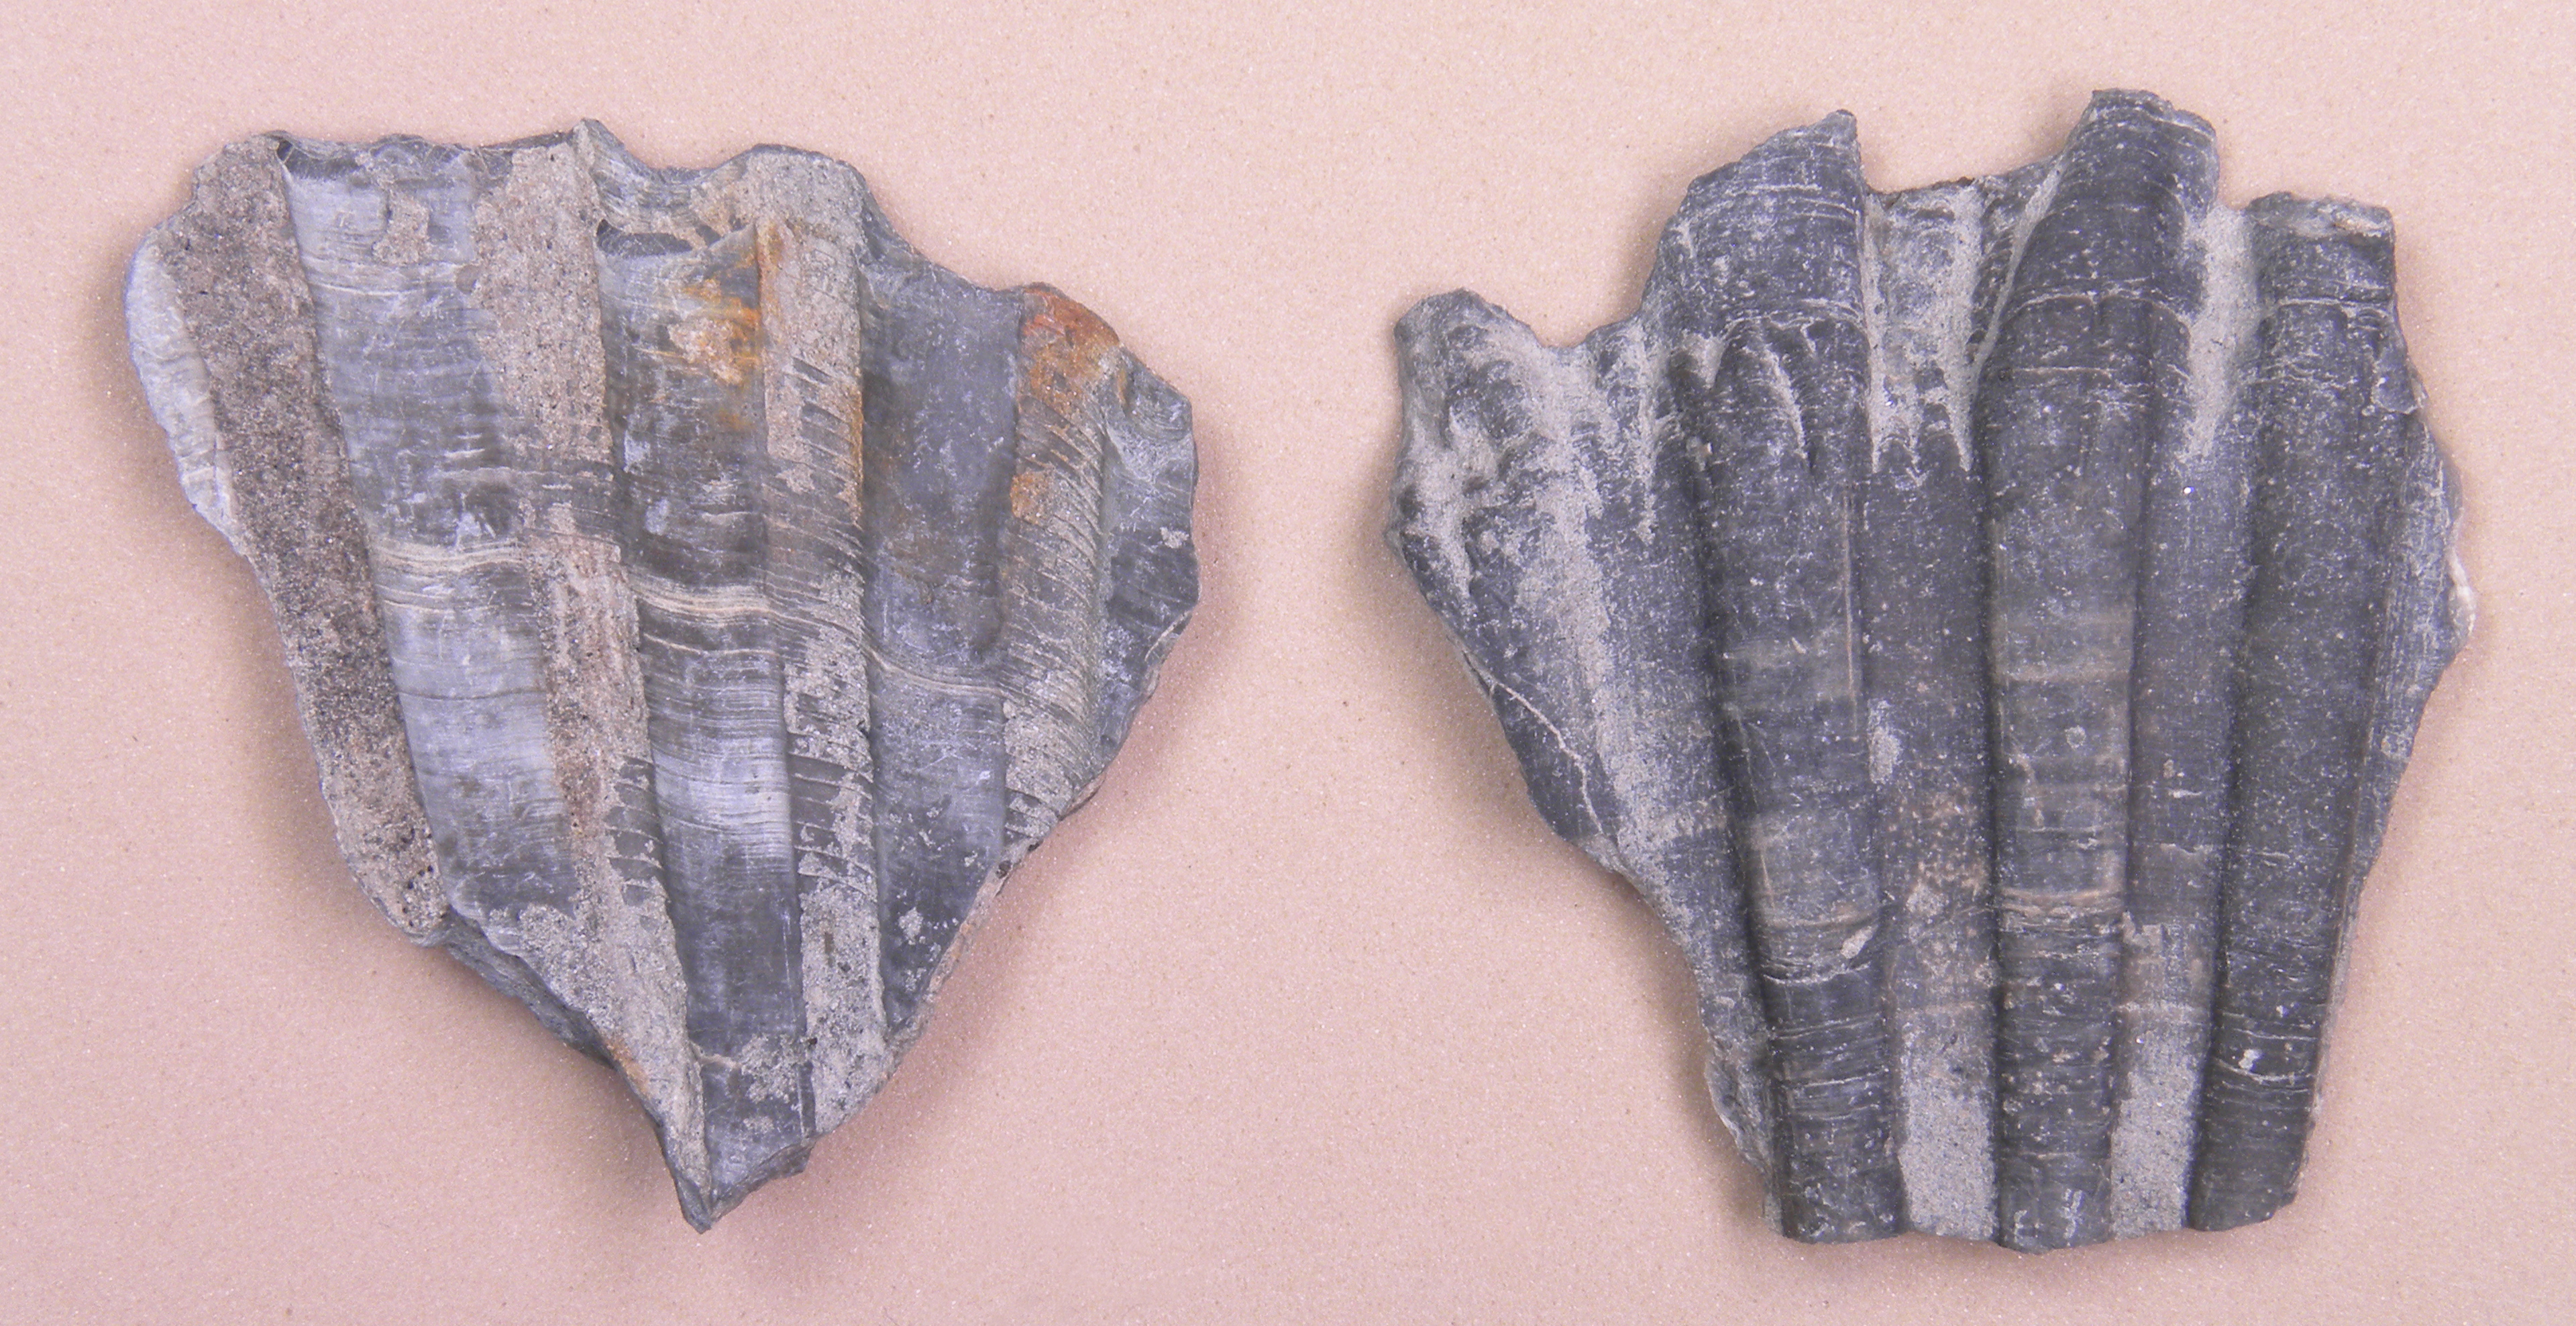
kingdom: Animalia
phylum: Mollusca
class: Cephalopoda
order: Belemnitida
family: Passaloteuthidae
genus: Passaloteuthis
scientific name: Passaloteuthis laevigata
